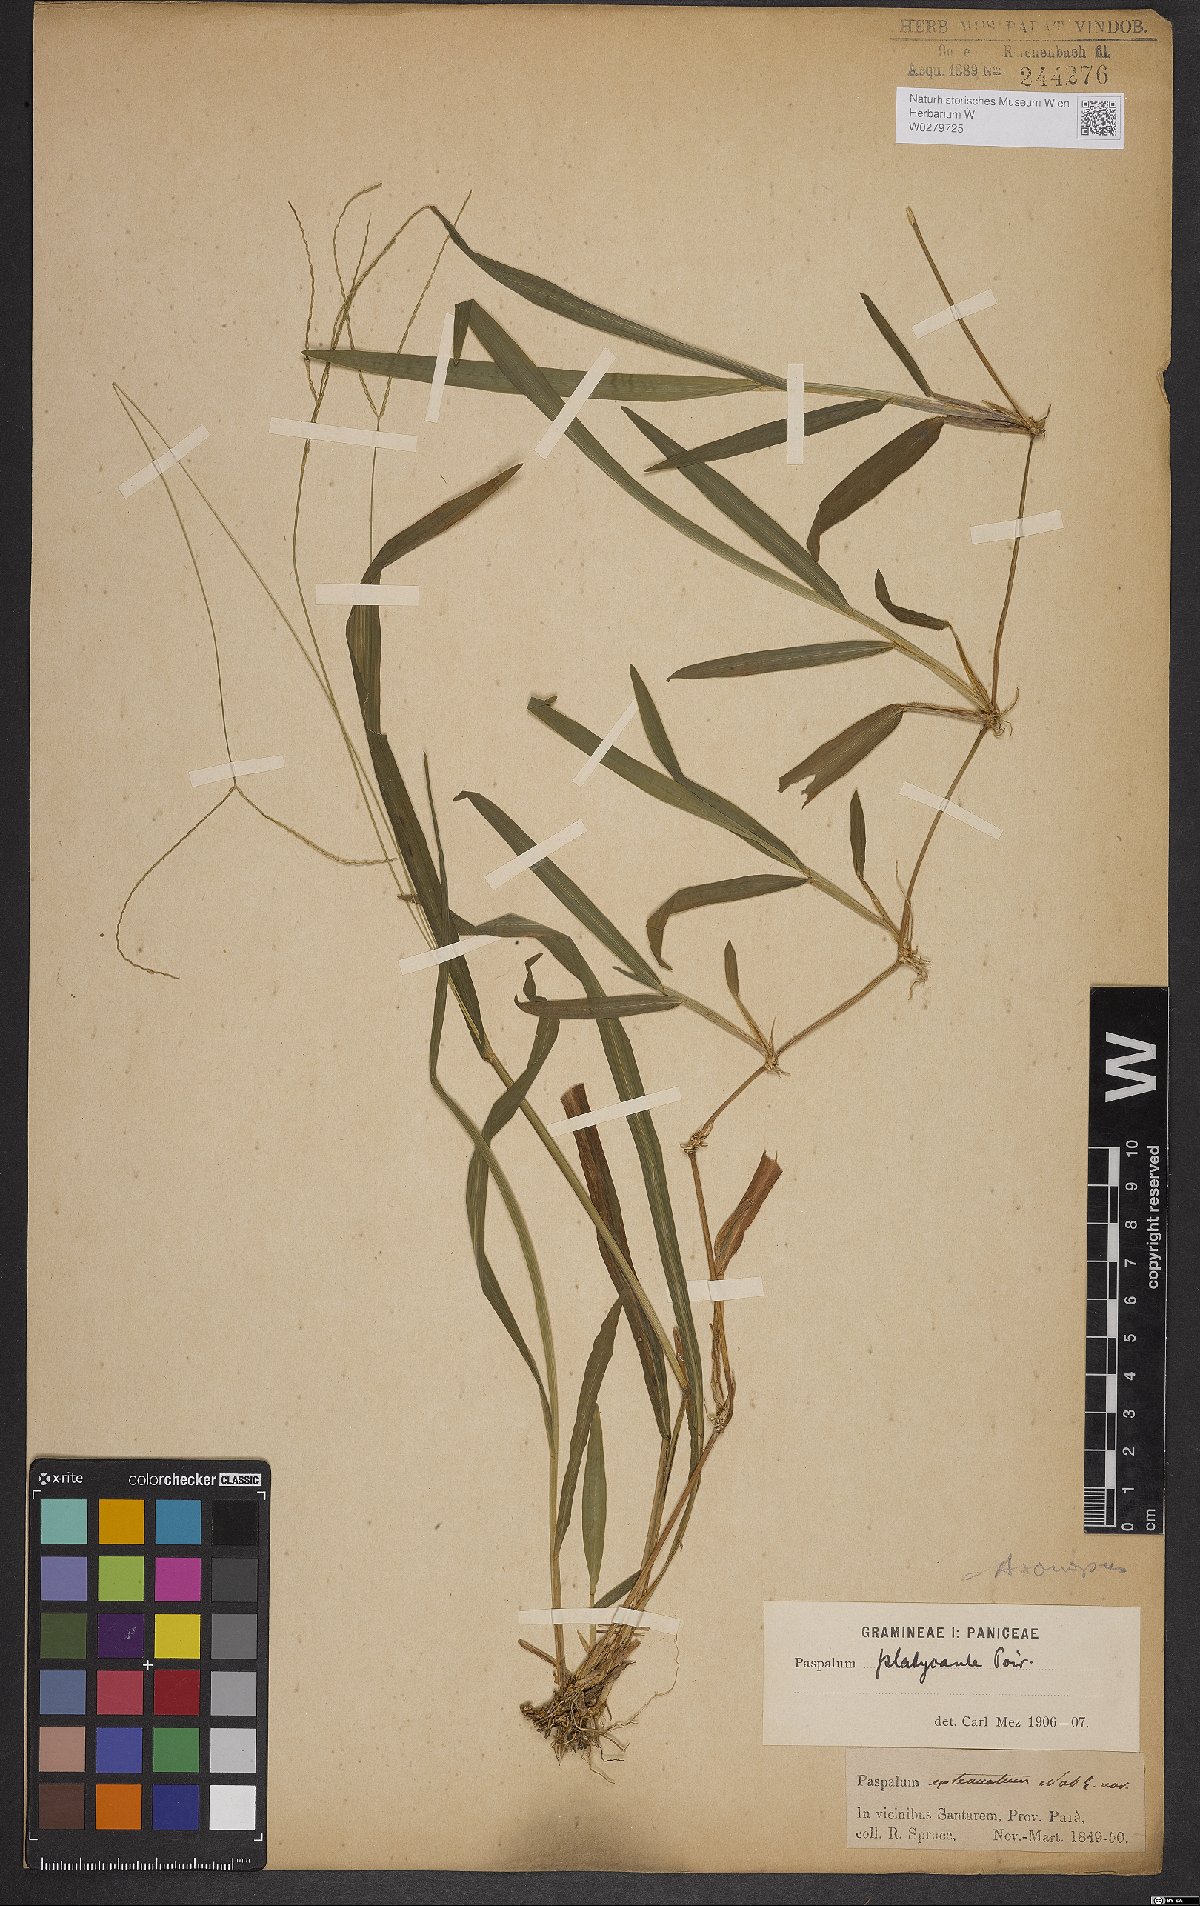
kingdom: Plantae
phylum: Tracheophyta
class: Liliopsida
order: Poales
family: Poaceae
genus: Axonopus
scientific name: Axonopus compressus
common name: American carpet grass
